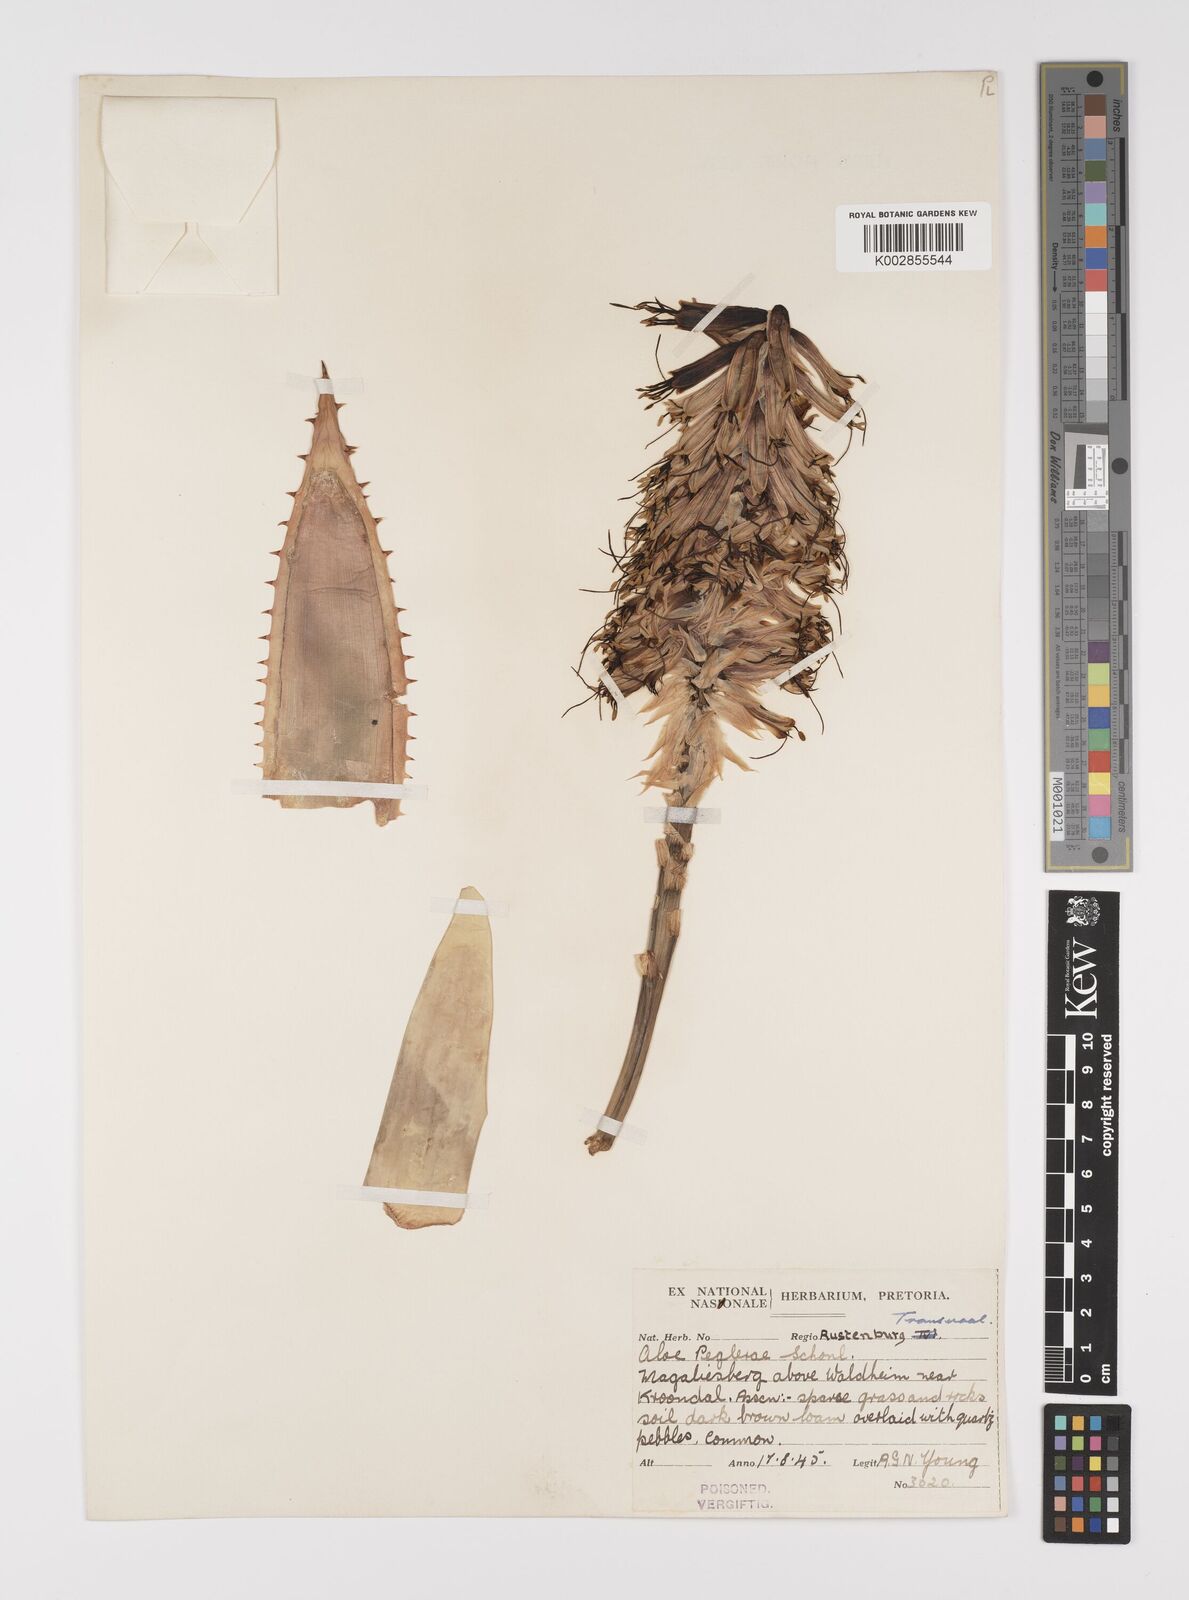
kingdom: Plantae
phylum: Tracheophyta
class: Liliopsida
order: Asparagales
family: Asphodelaceae
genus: Aloe
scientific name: Aloe peglerae
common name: Red-hot poker
